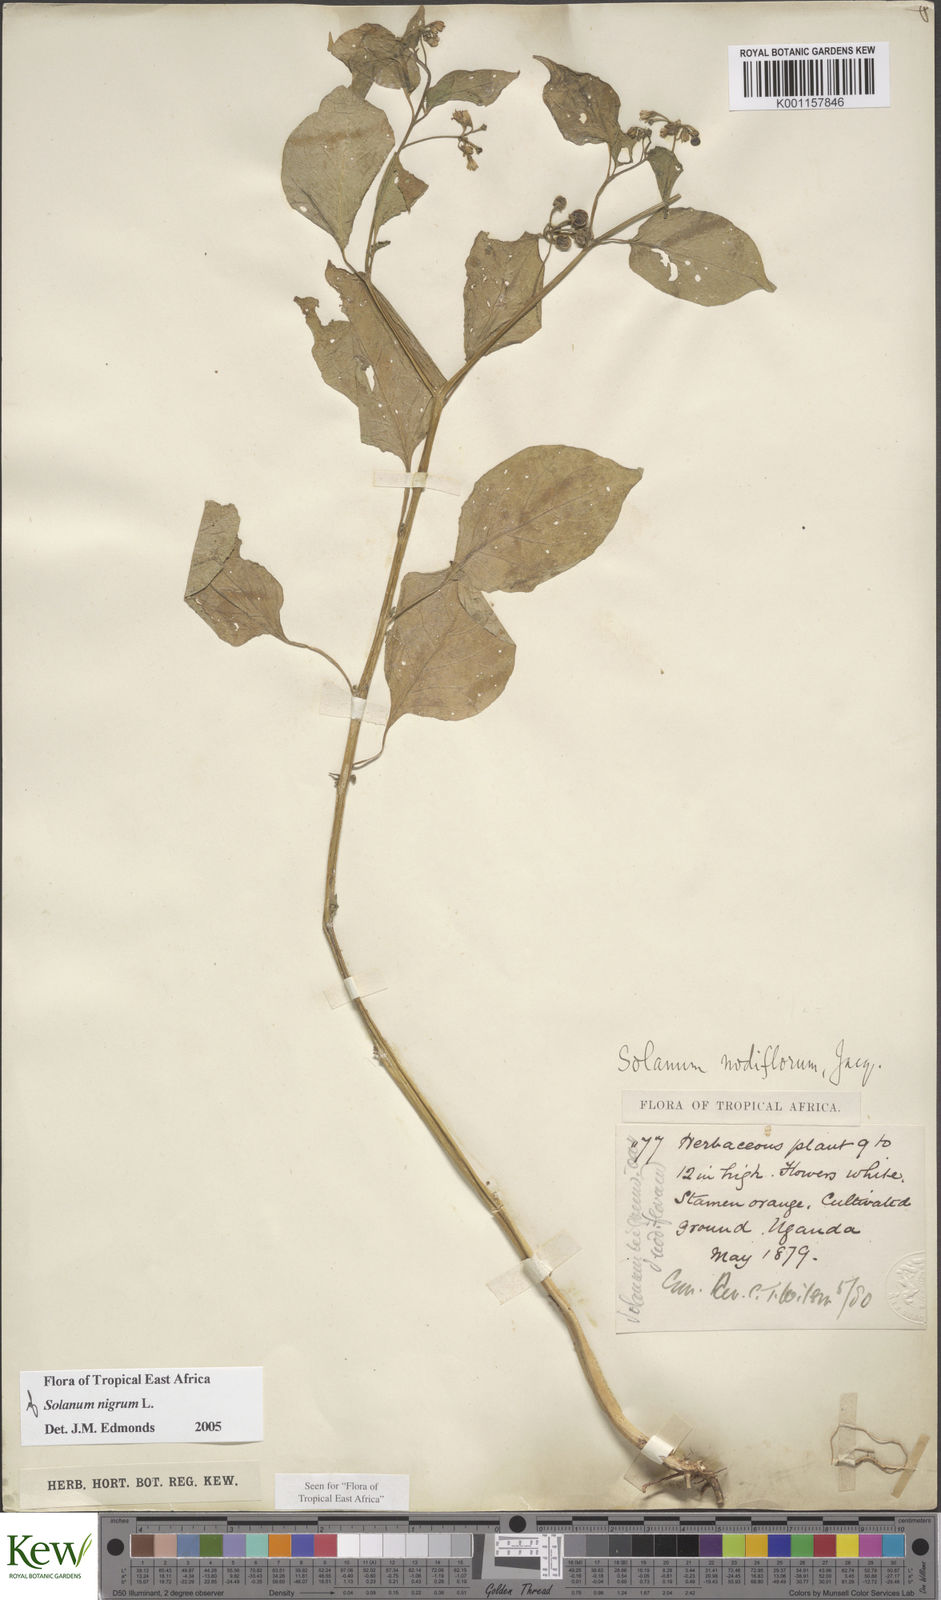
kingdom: Plantae
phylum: Tracheophyta
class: Magnoliopsida
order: Solanales
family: Solanaceae
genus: Solanum
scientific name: Solanum nigrum
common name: Black nightshade
